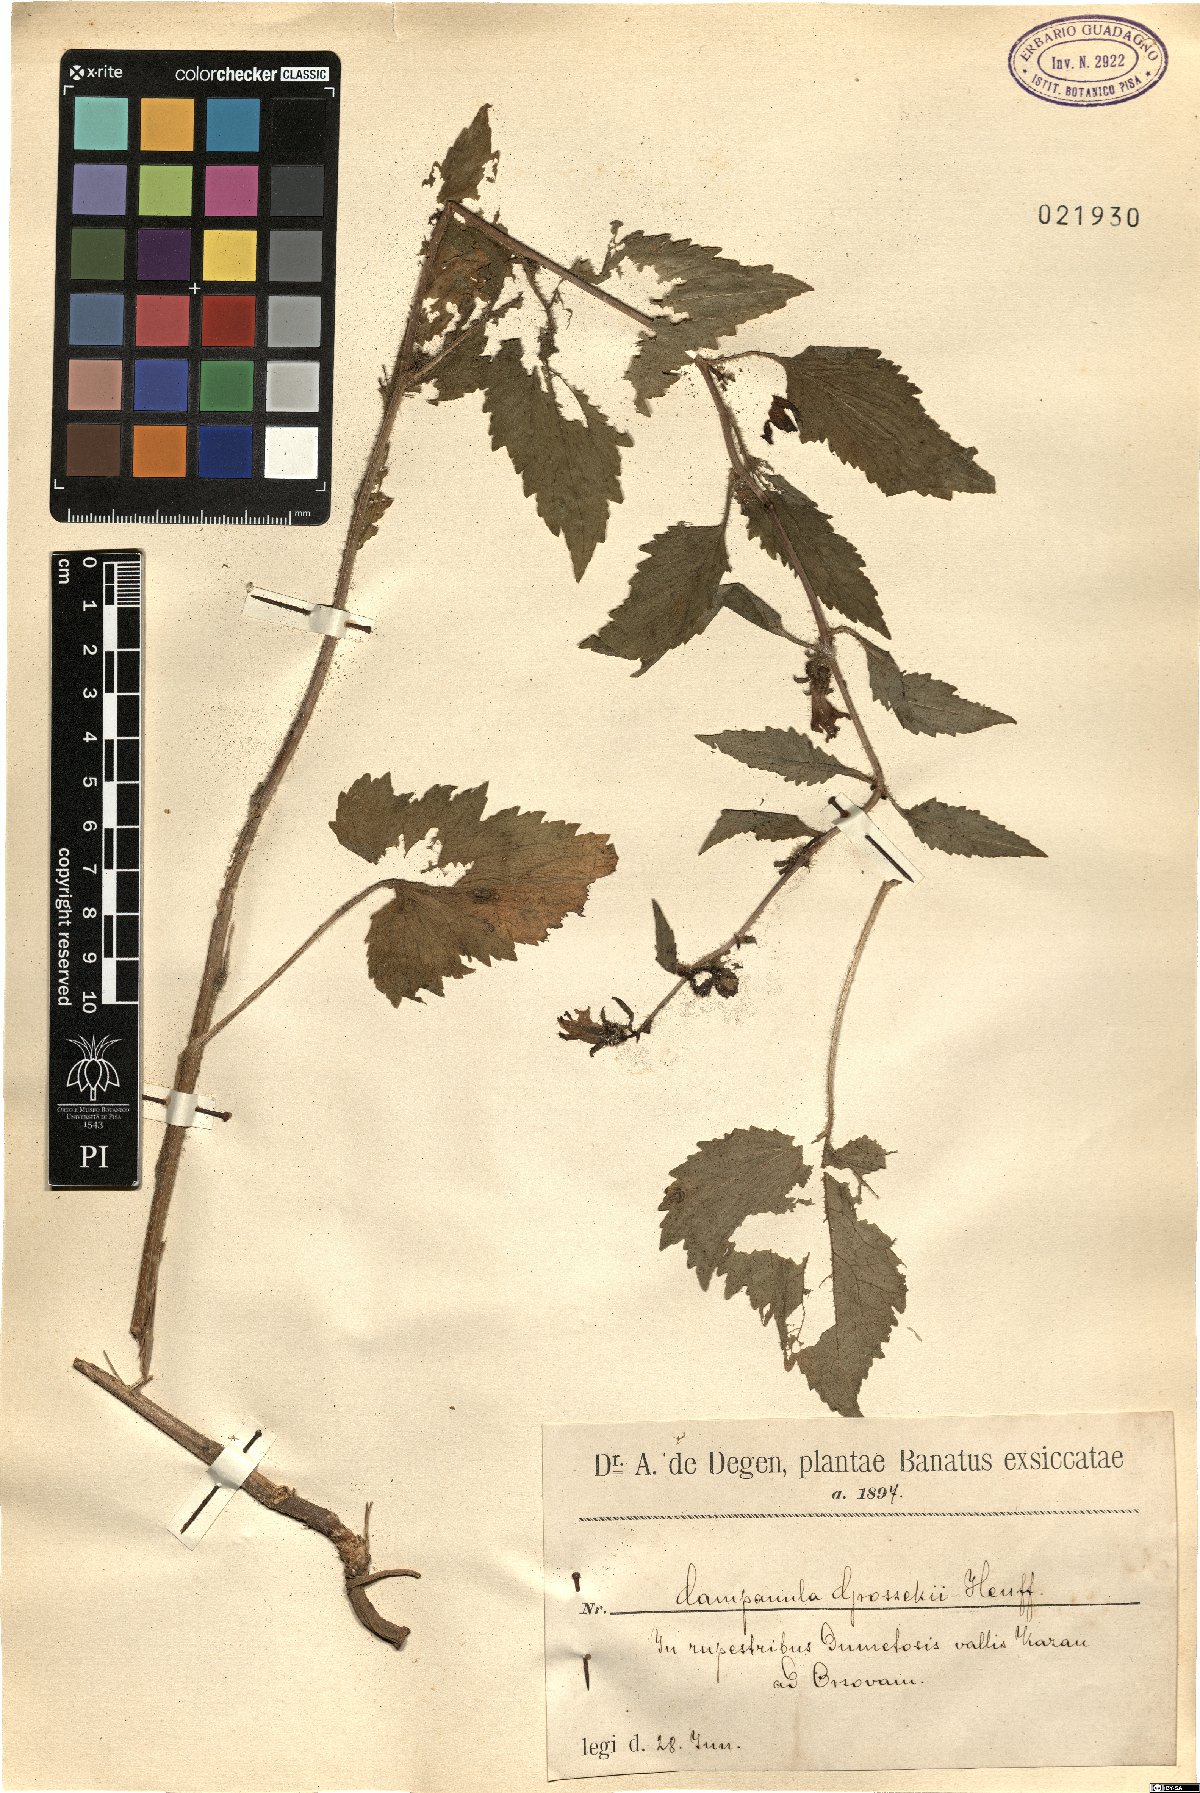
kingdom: Plantae
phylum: Tracheophyta
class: Magnoliopsida
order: Asterales
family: Campanulaceae
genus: Campanula
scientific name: Campanula grossekii
